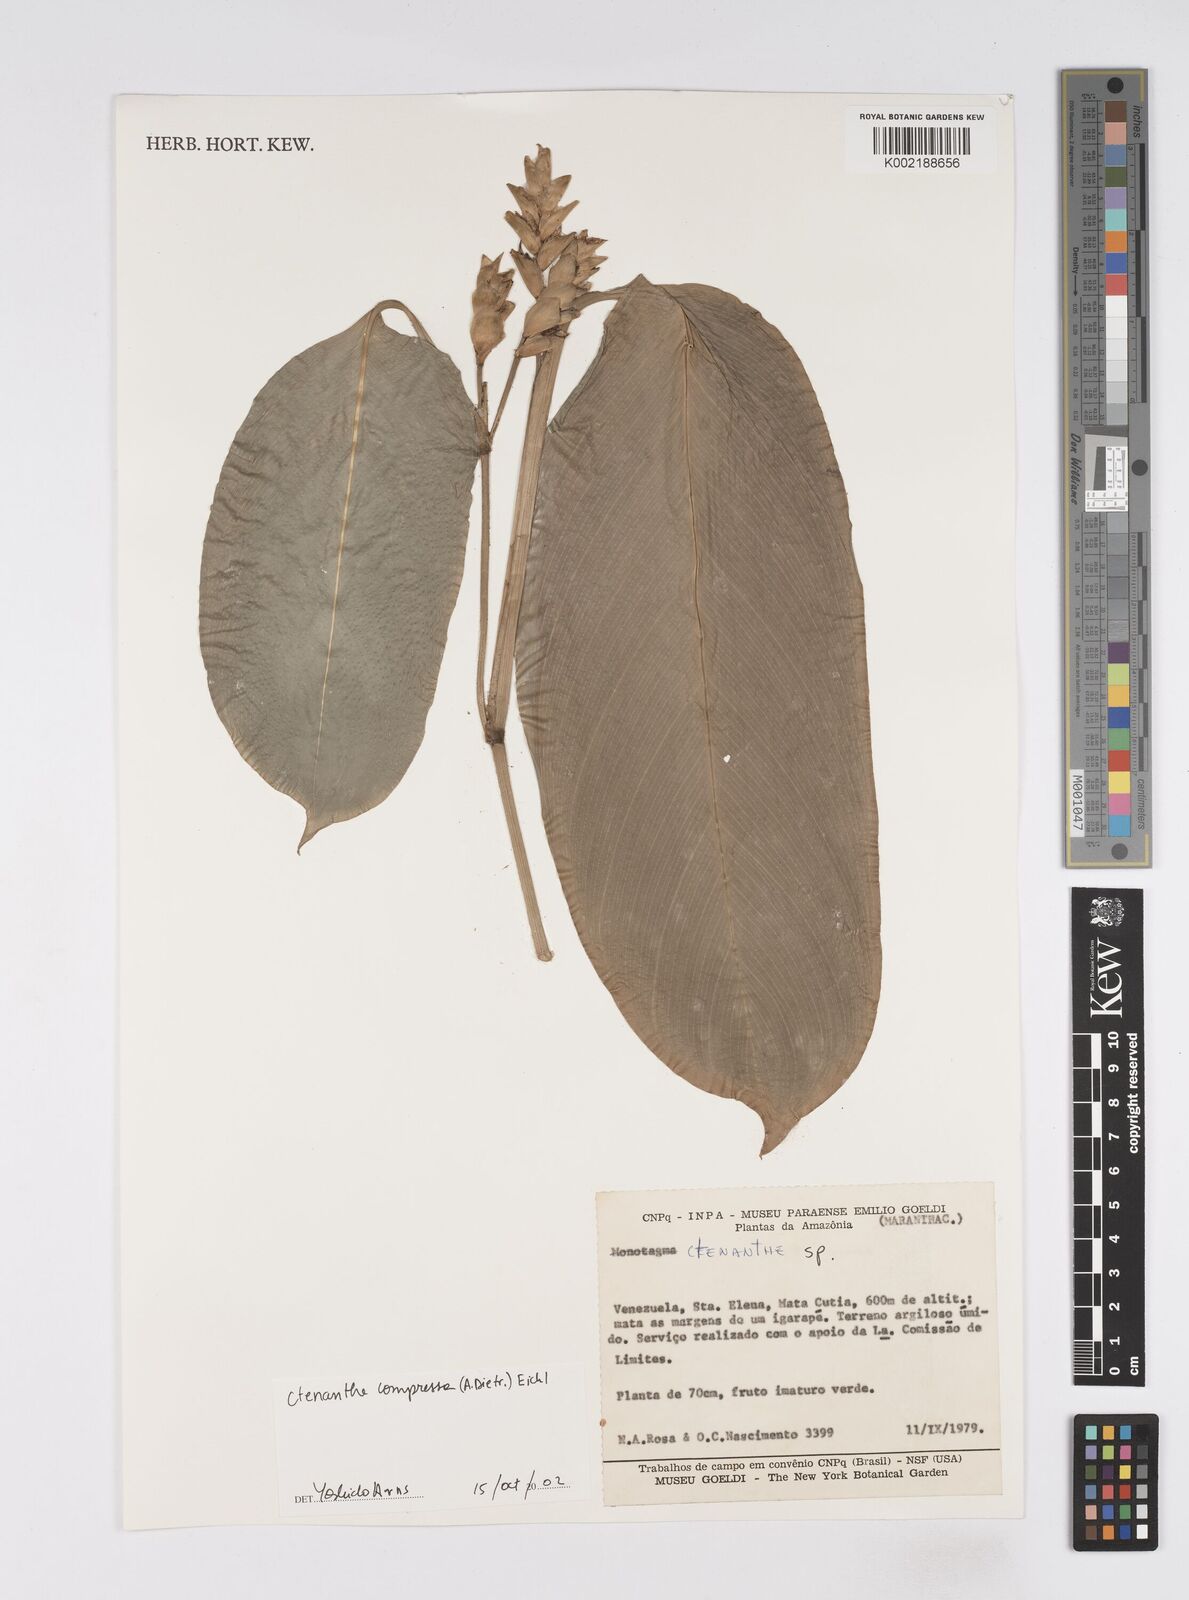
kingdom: Plantae
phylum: Tracheophyta
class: Liliopsida
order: Zingiberales
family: Marantaceae
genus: Ctenanthe
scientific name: Ctenanthe compressa
